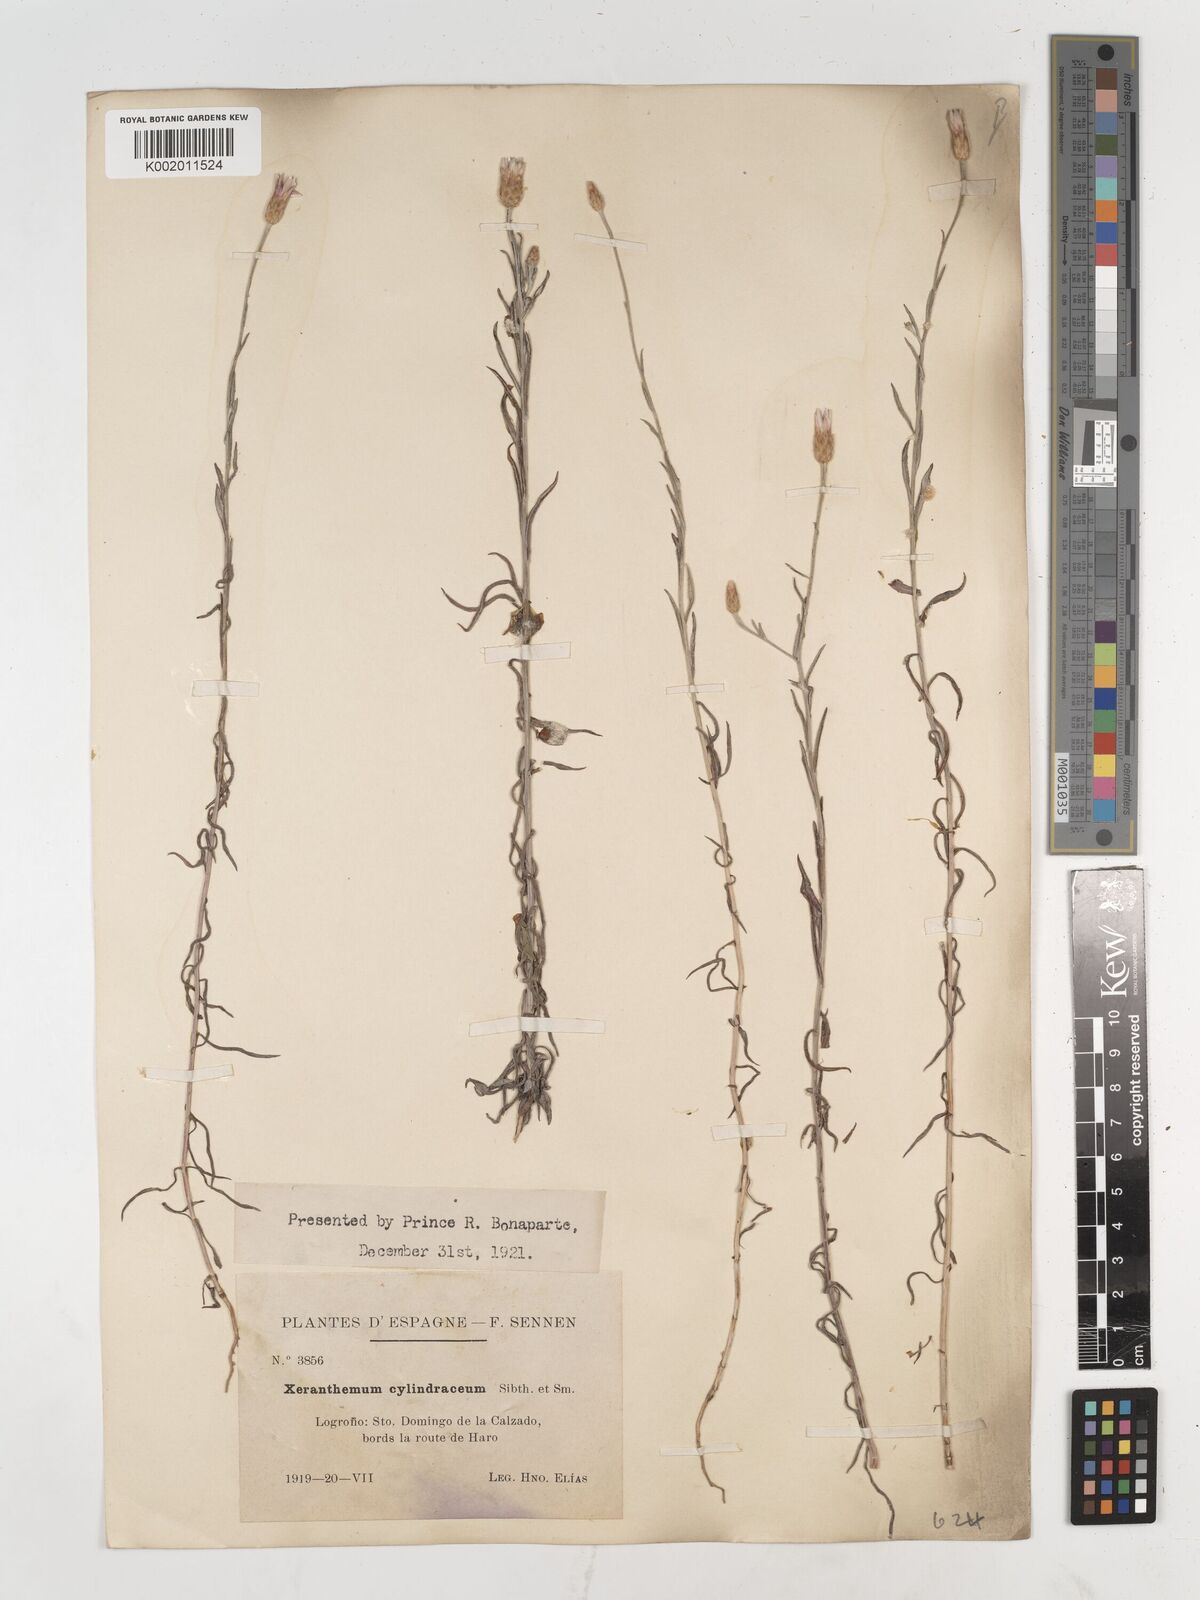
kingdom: Plantae
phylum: Tracheophyta
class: Magnoliopsida
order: Asterales
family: Asteraceae
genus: Xeranthemum
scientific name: Xeranthemum cylindraceum
